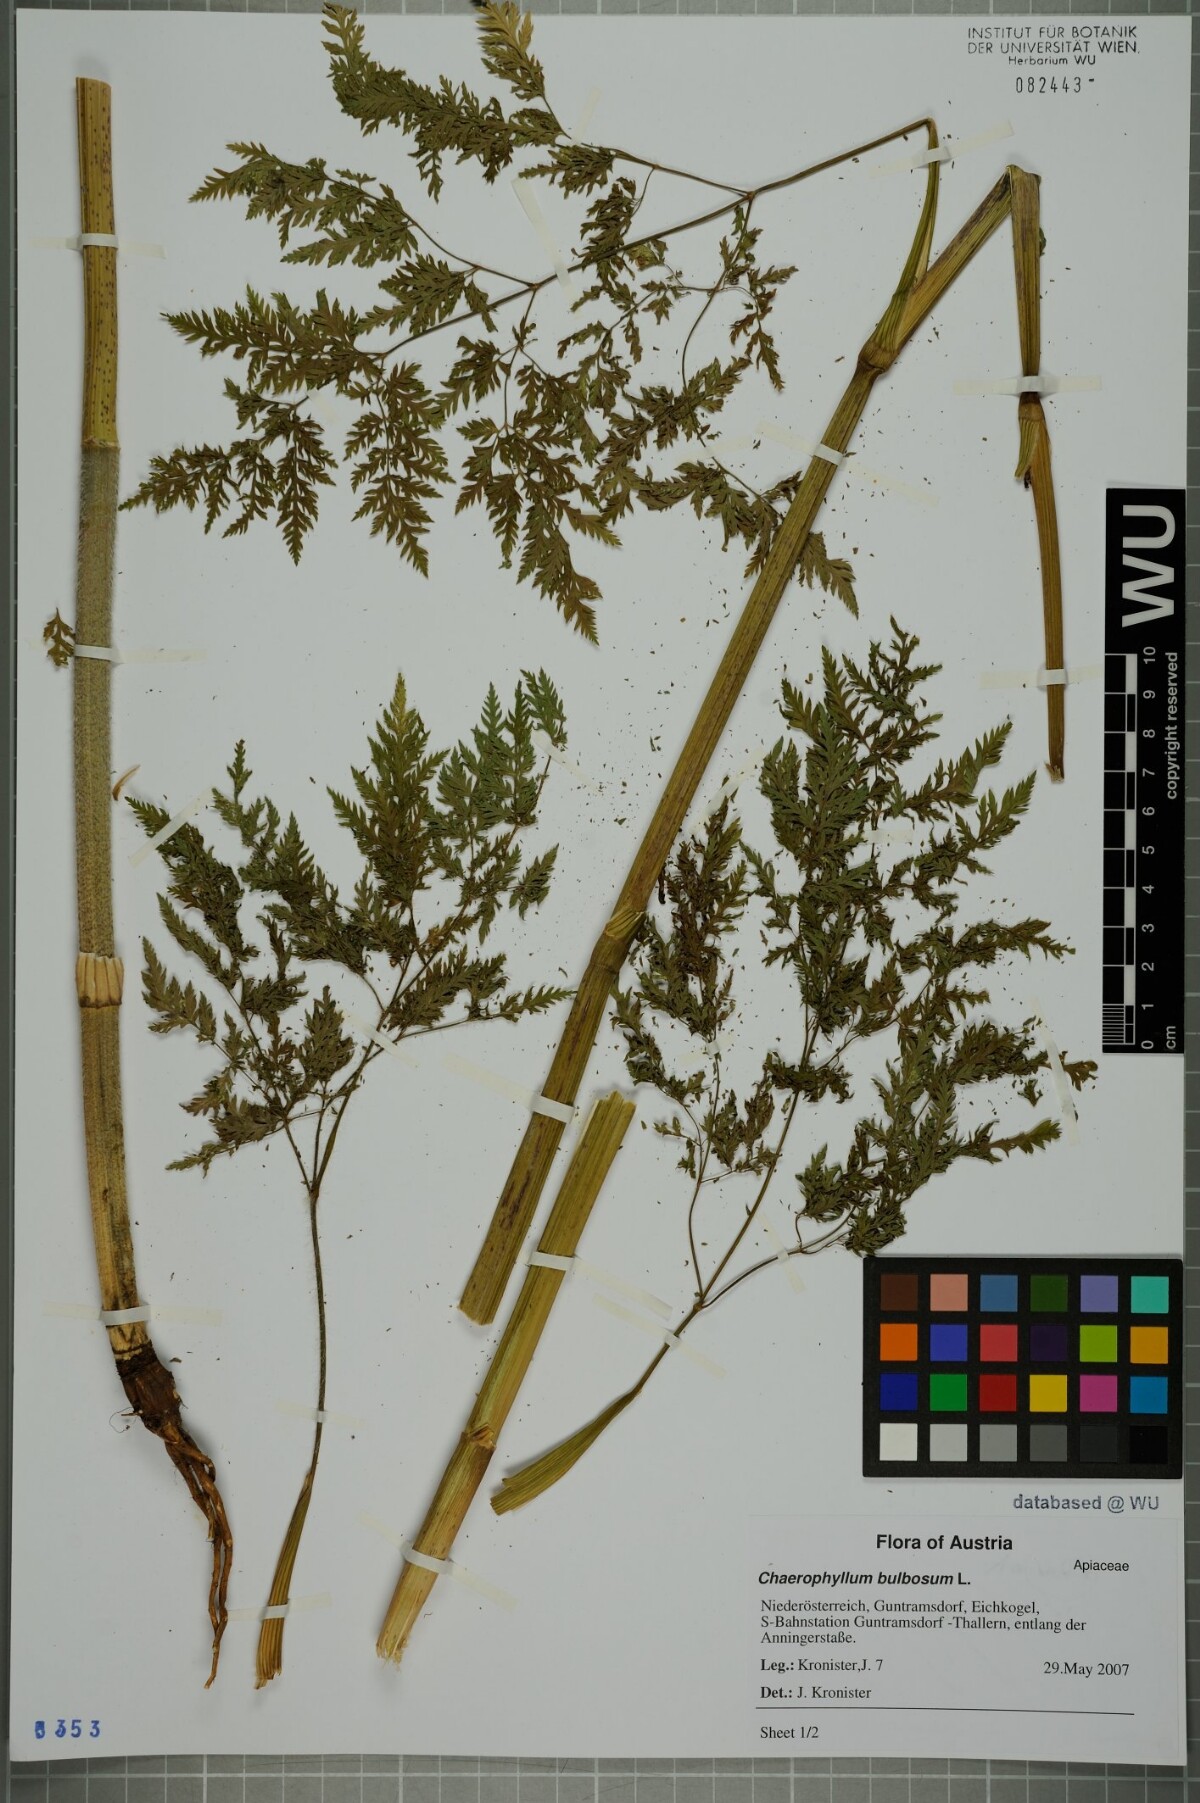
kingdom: Plantae
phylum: Tracheophyta
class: Magnoliopsida
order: Apiales
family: Apiaceae
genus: Chaerophyllum
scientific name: Chaerophyllum bulbosum
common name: Bulbous chervil
